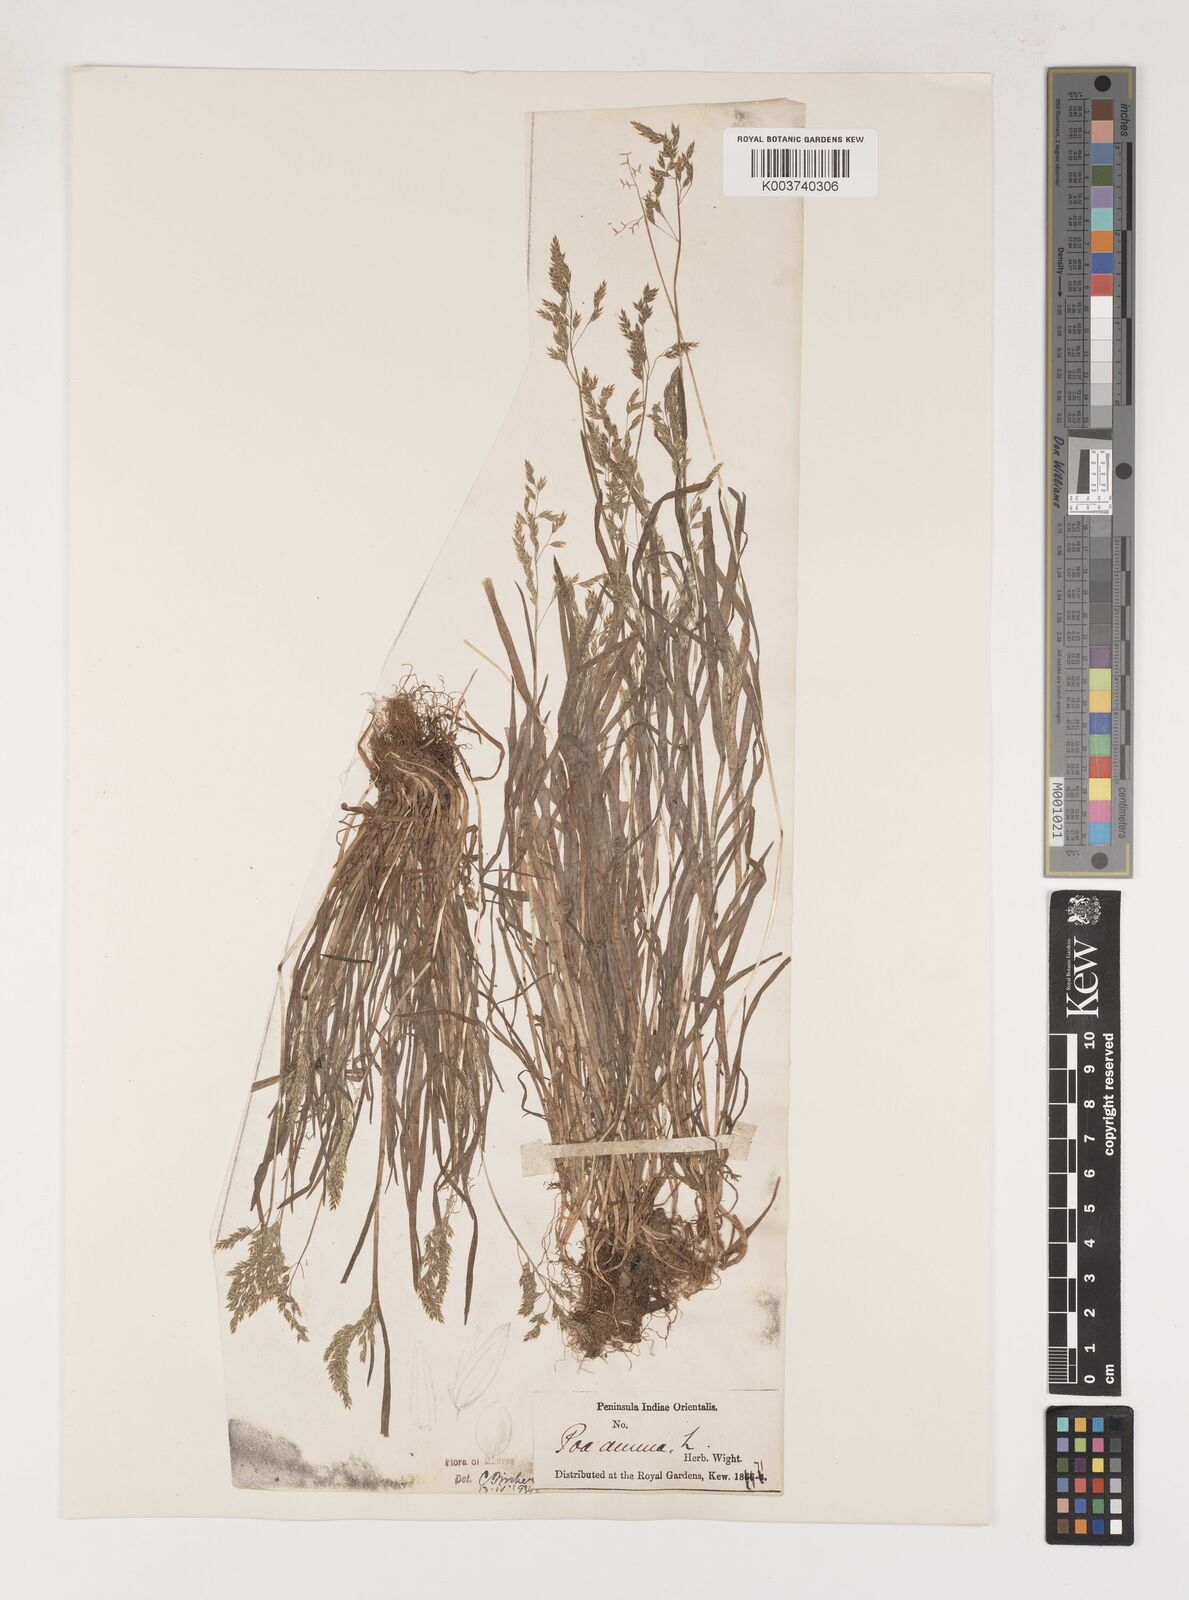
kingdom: Plantae
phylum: Tracheophyta
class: Liliopsida
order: Poales
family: Poaceae
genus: Poa
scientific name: Poa annua
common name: Annual bluegrass
